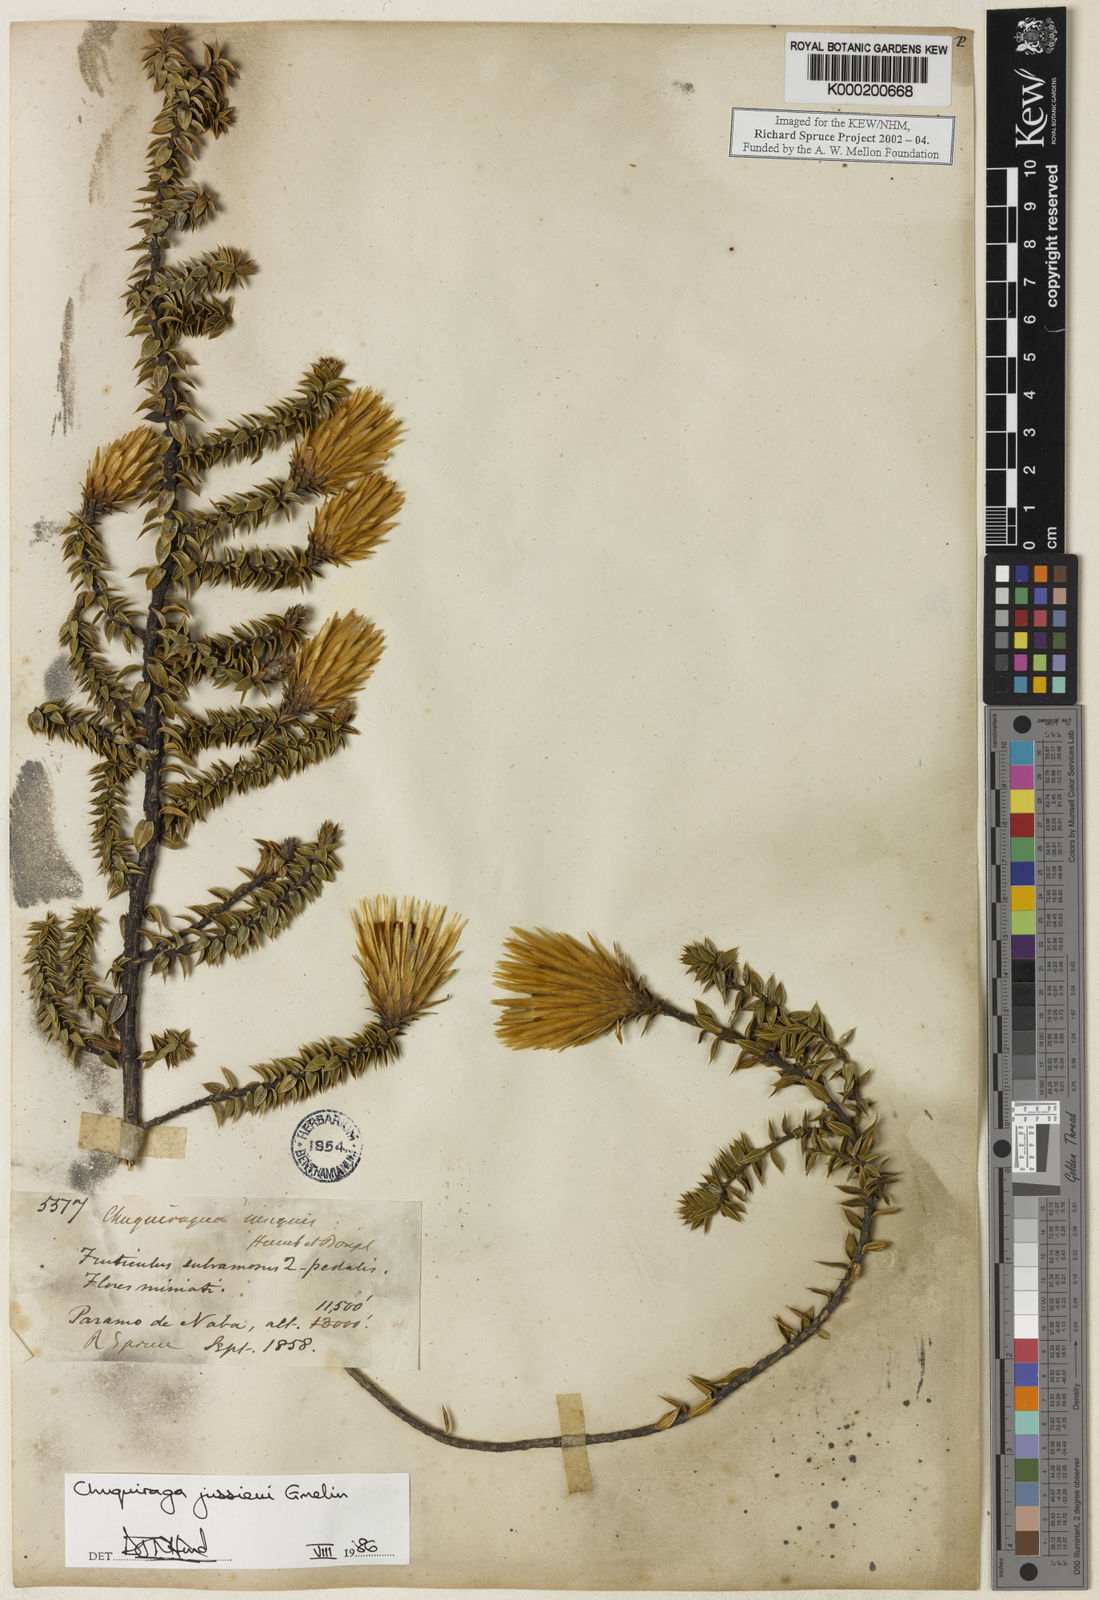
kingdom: Plantae
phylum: Tracheophyta
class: Magnoliopsida
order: Asterales
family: Asteraceae
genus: Chuquiraga
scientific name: Chuquiraga jussieui
